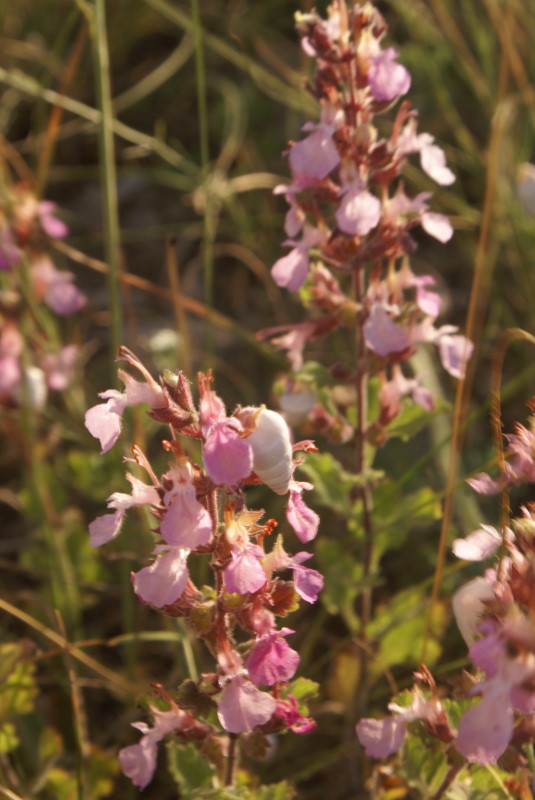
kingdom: Plantae
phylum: Tracheophyta
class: Magnoliopsida
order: Lamiales
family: Lamiaceae
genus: Thymus
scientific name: Thymus
